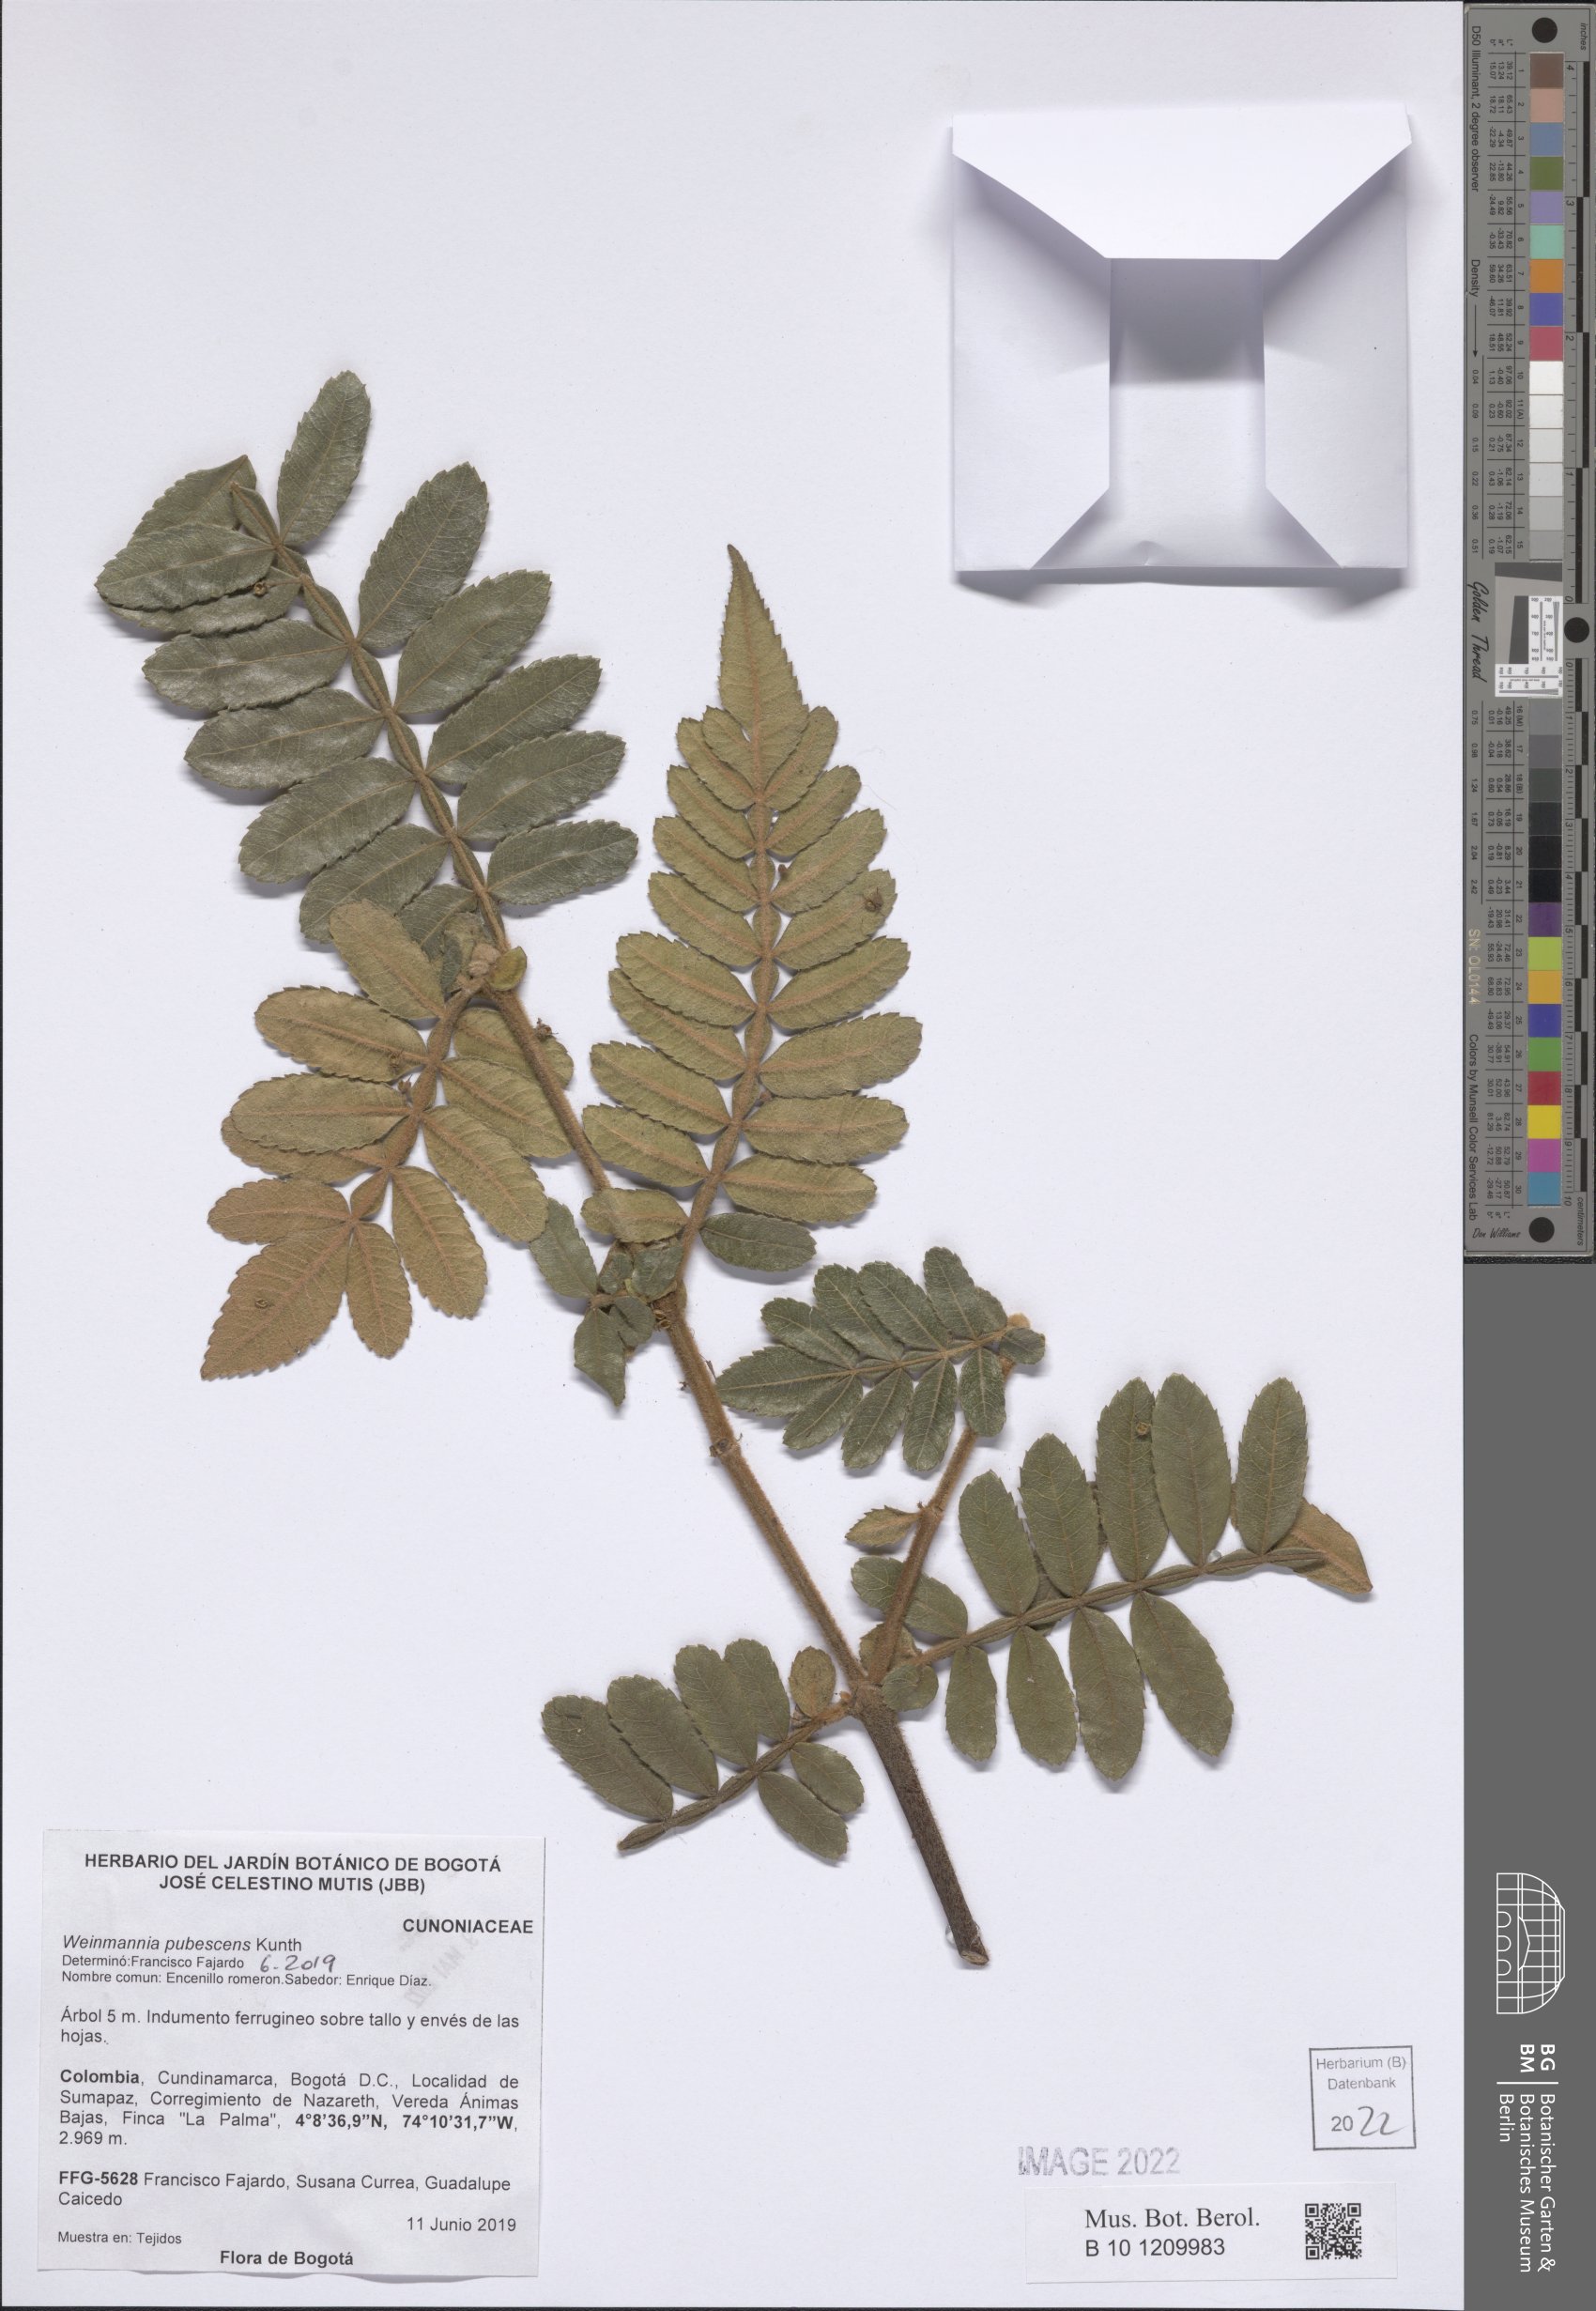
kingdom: Plantae
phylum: Tracheophyta
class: Magnoliopsida
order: Oxalidales
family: Cunoniaceae
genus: Weinmannia
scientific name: Weinmannia pubescens
